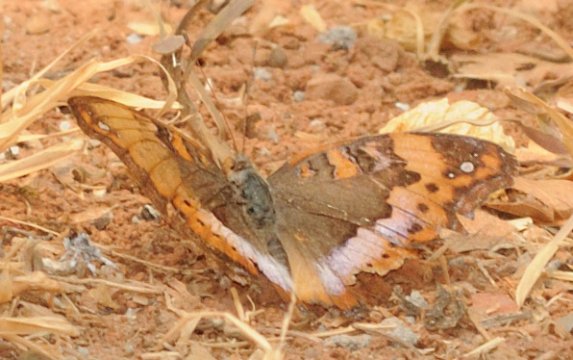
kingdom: Animalia
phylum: Arthropoda
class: Insecta
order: Lepidoptera
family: Nymphalidae
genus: Precis
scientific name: Precis pelarga
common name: Fashion Commodore
